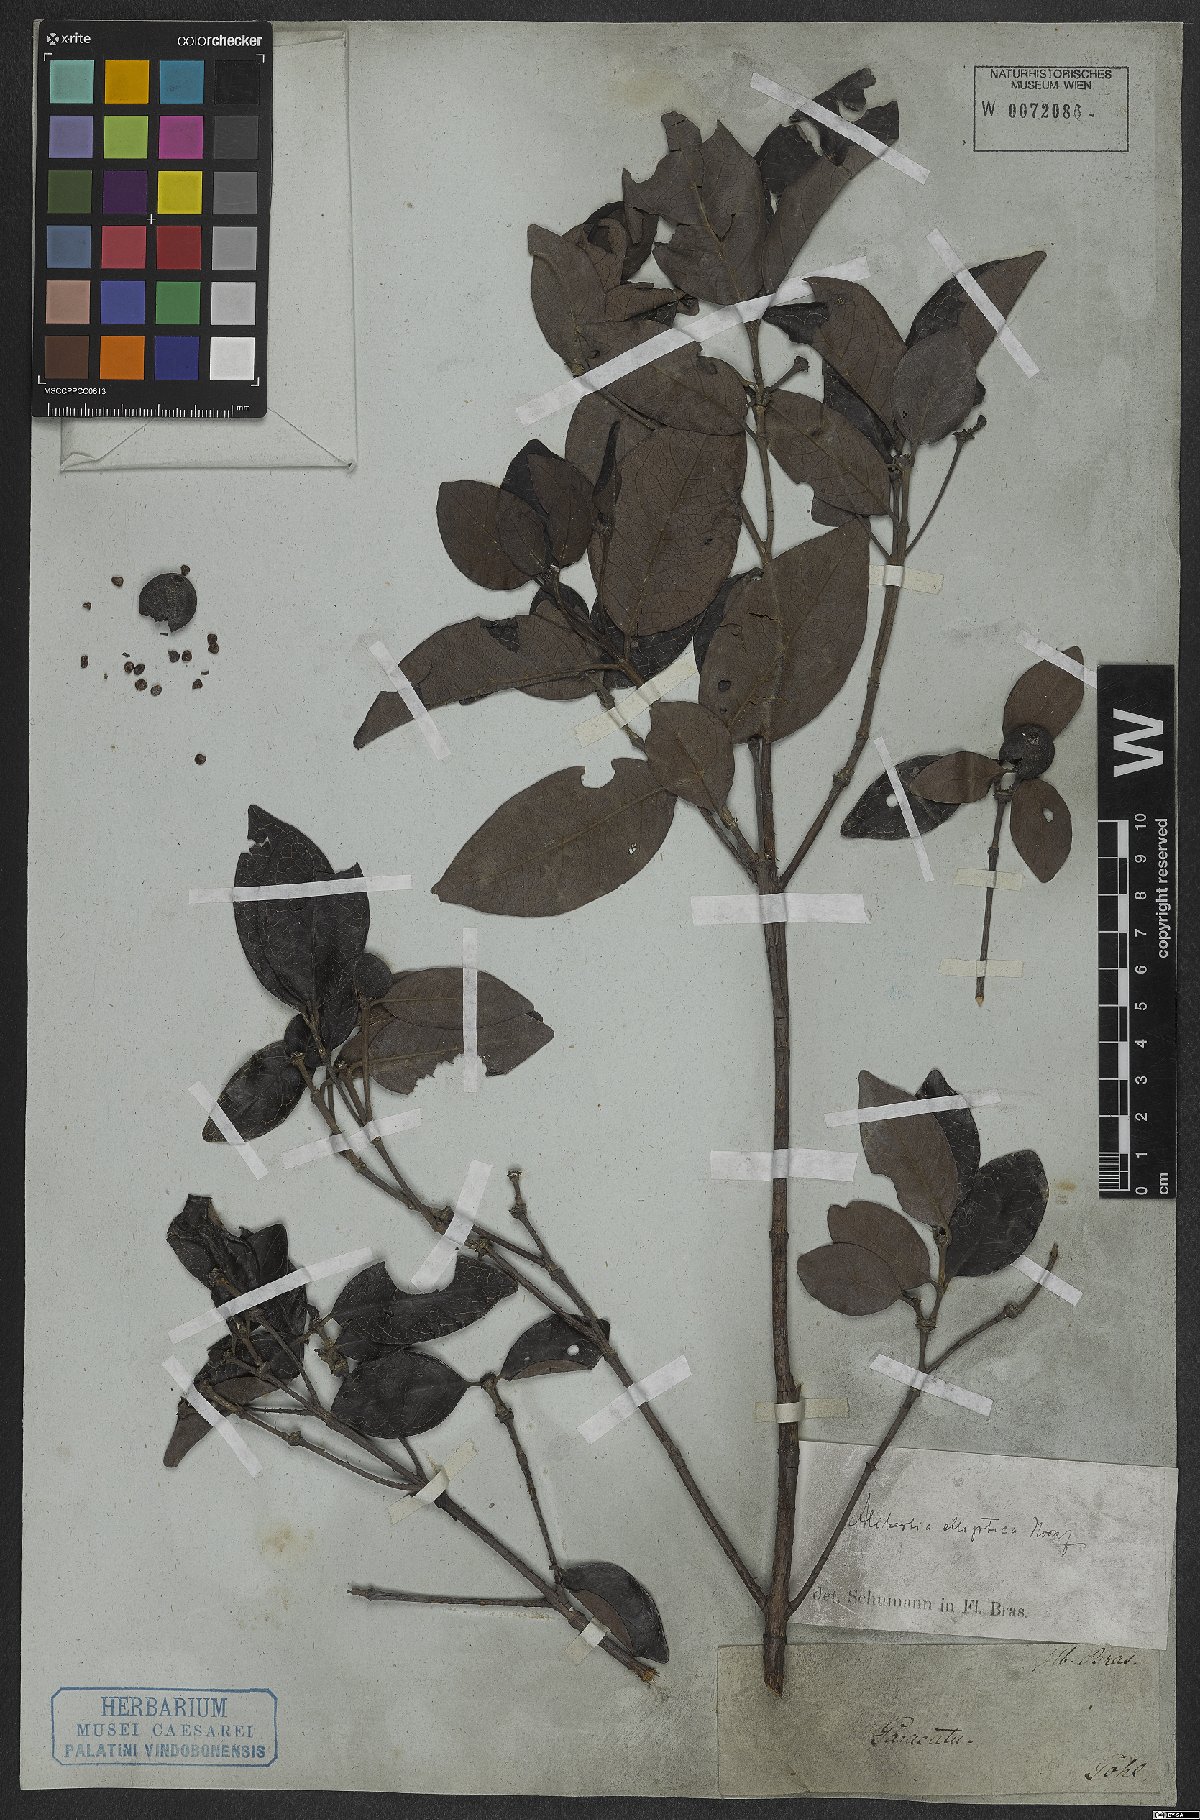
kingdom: Plantae
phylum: Tracheophyta
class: Magnoliopsida
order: Gentianales
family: Rubiaceae
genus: Cordiera
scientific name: Cordiera elliptica
